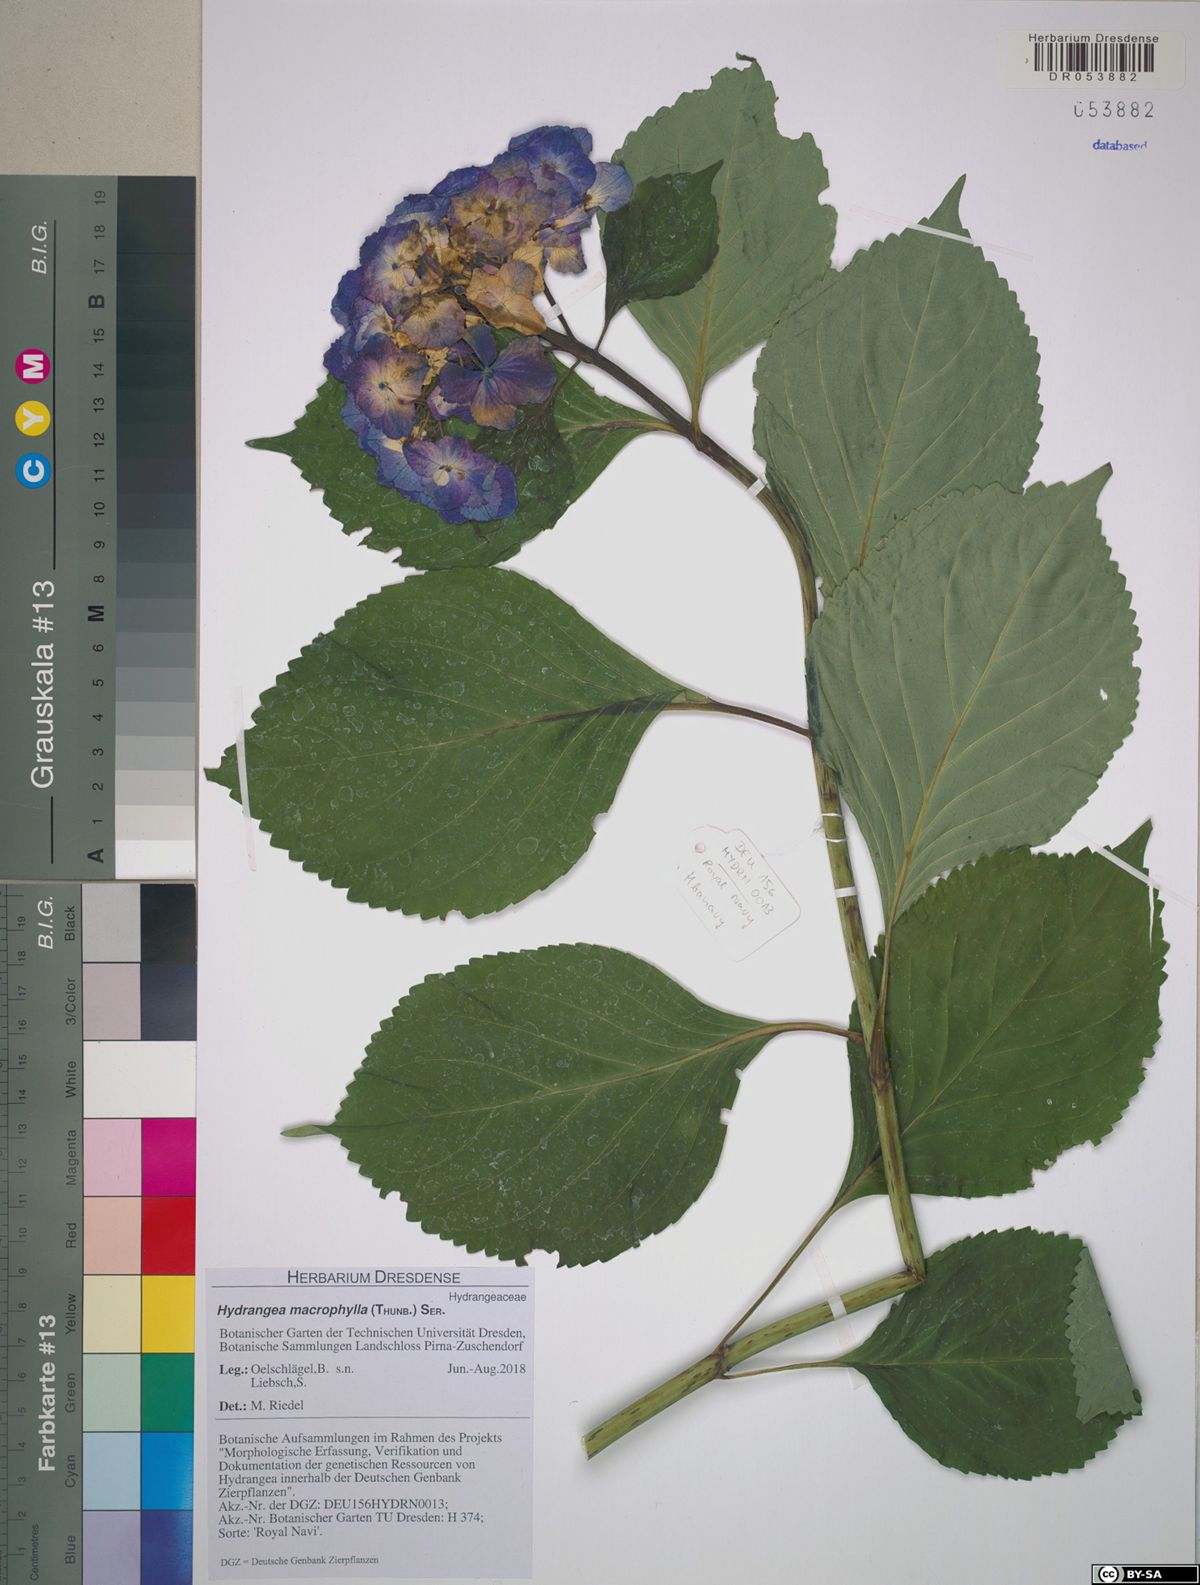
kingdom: Plantae
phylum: Tracheophyta
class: Magnoliopsida
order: Cornales
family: Hydrangeaceae
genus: Hydrangea
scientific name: Hydrangea macrophylla
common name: Hydrangea
